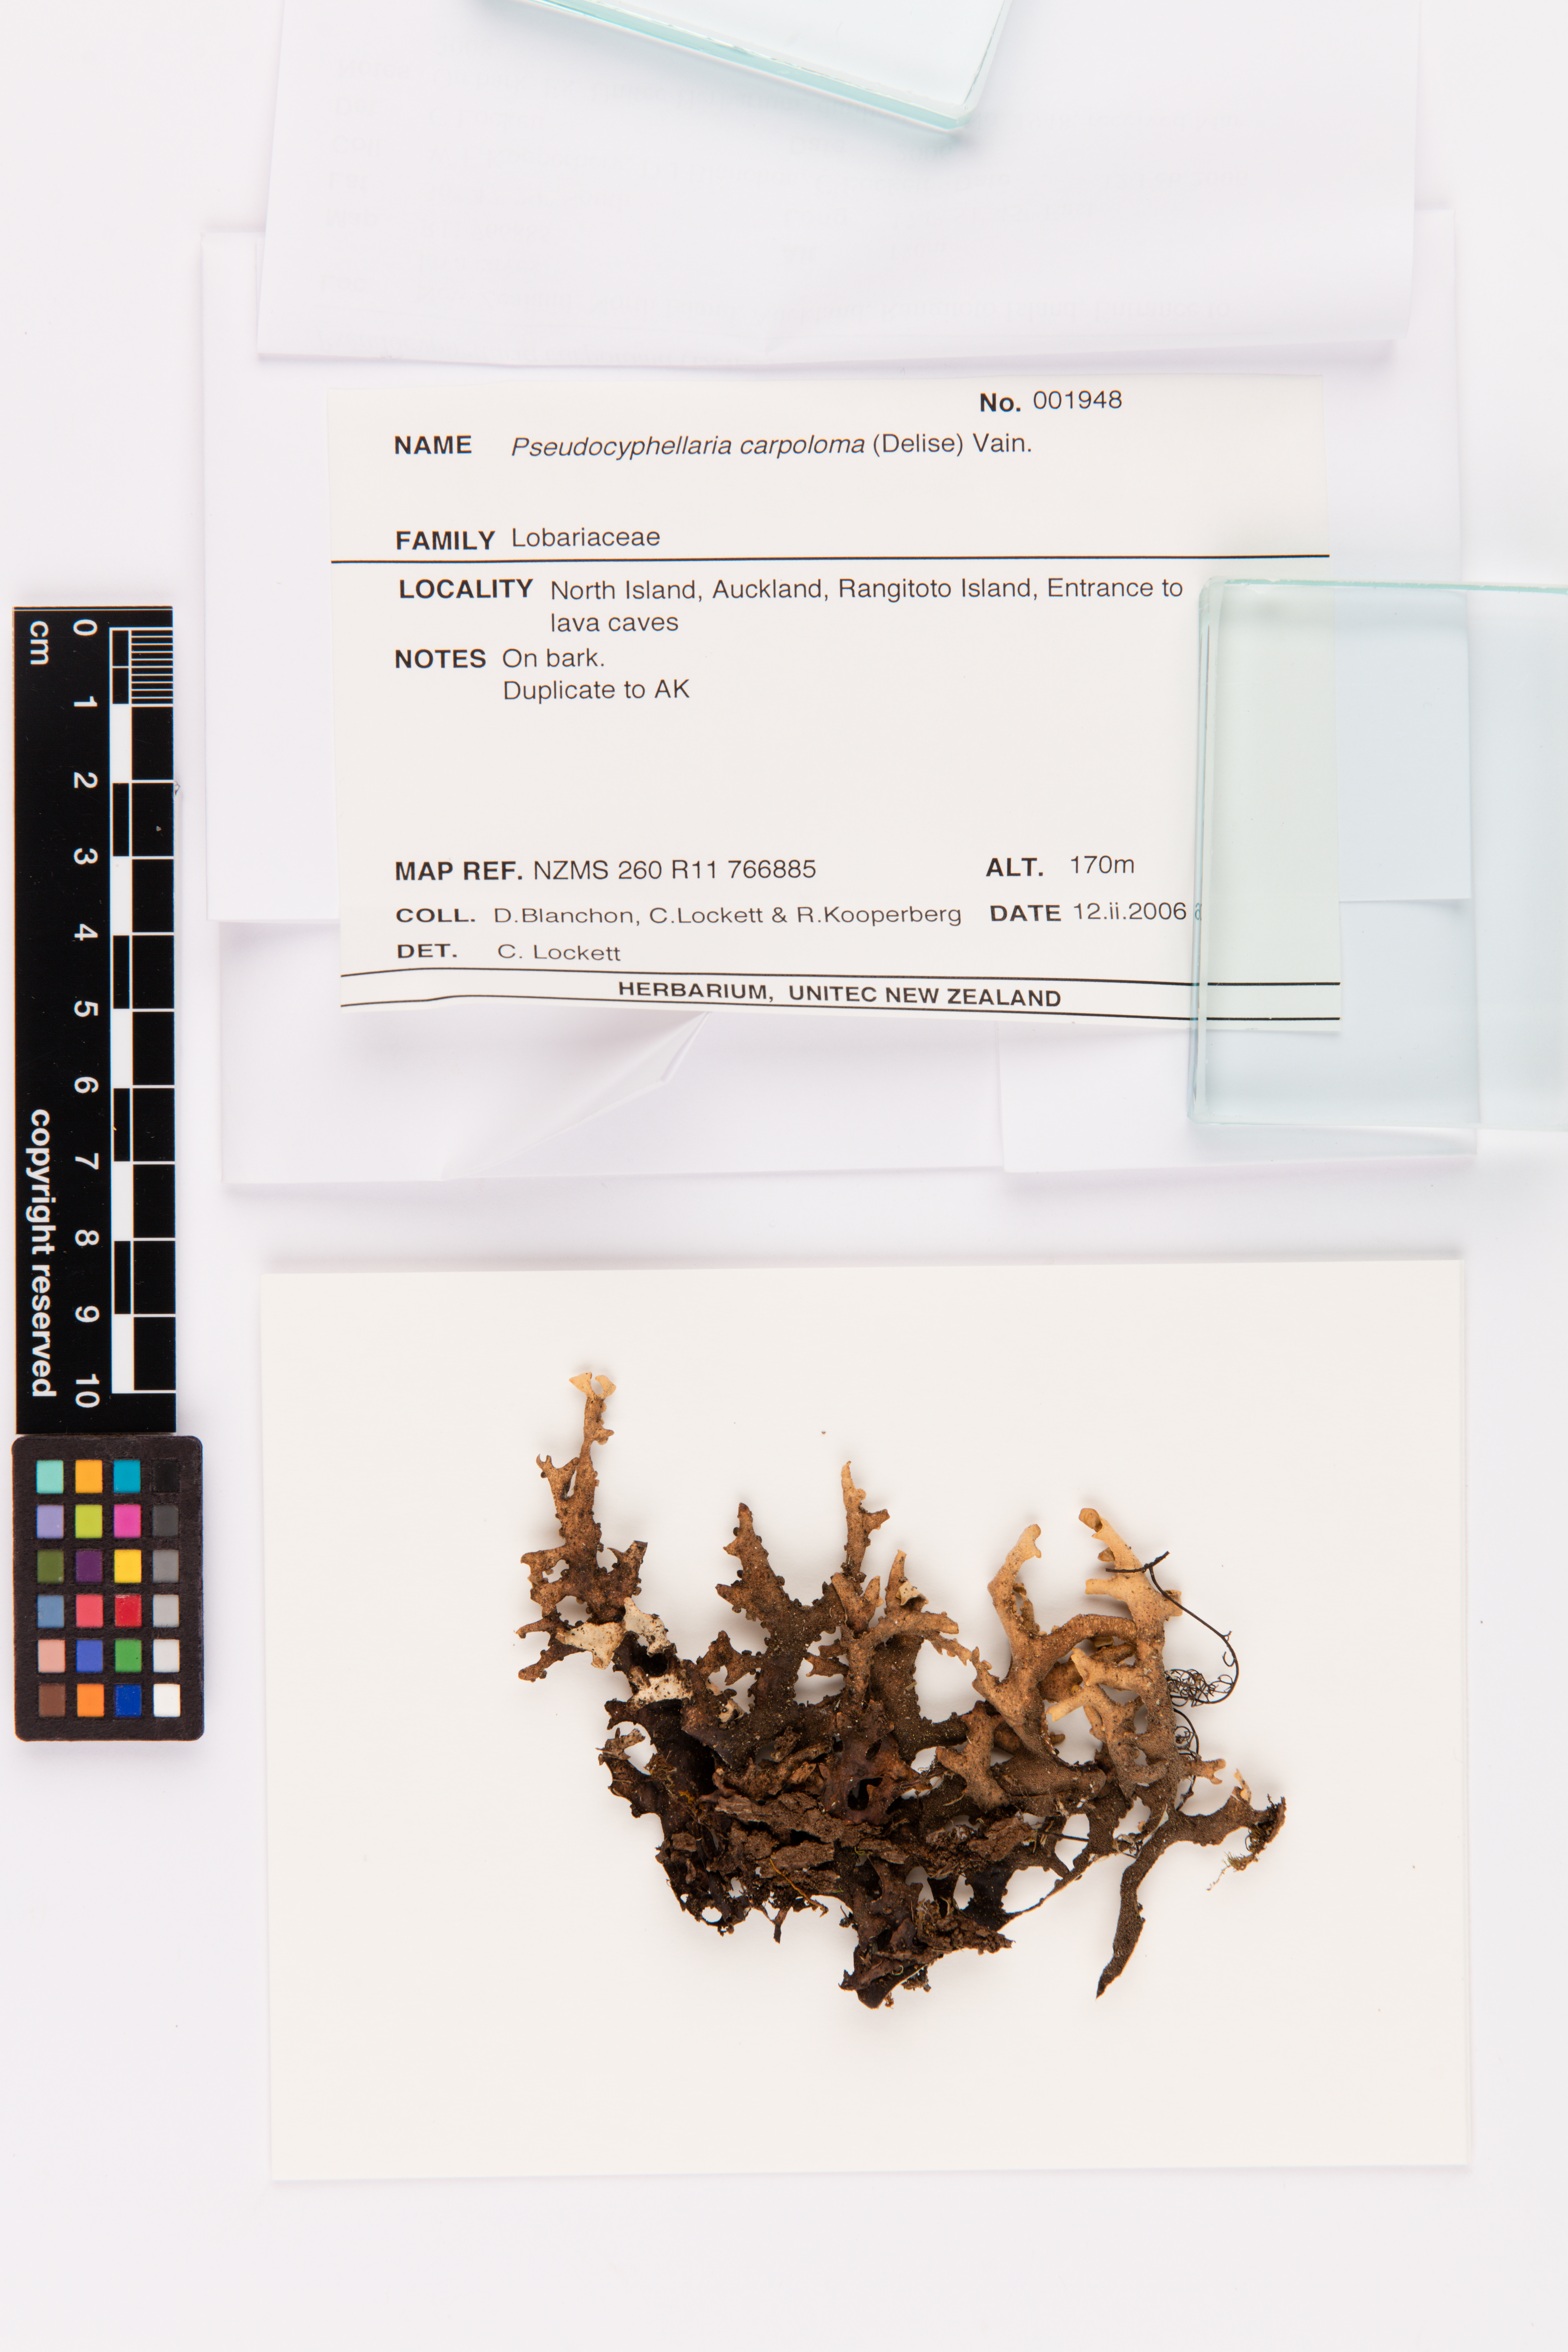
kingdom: Fungi
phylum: Ascomycota
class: Lecanoromycetes
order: Peltigerales
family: Lobariaceae
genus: Pseudocyphellaria
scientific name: Pseudocyphellaria carpoloma
